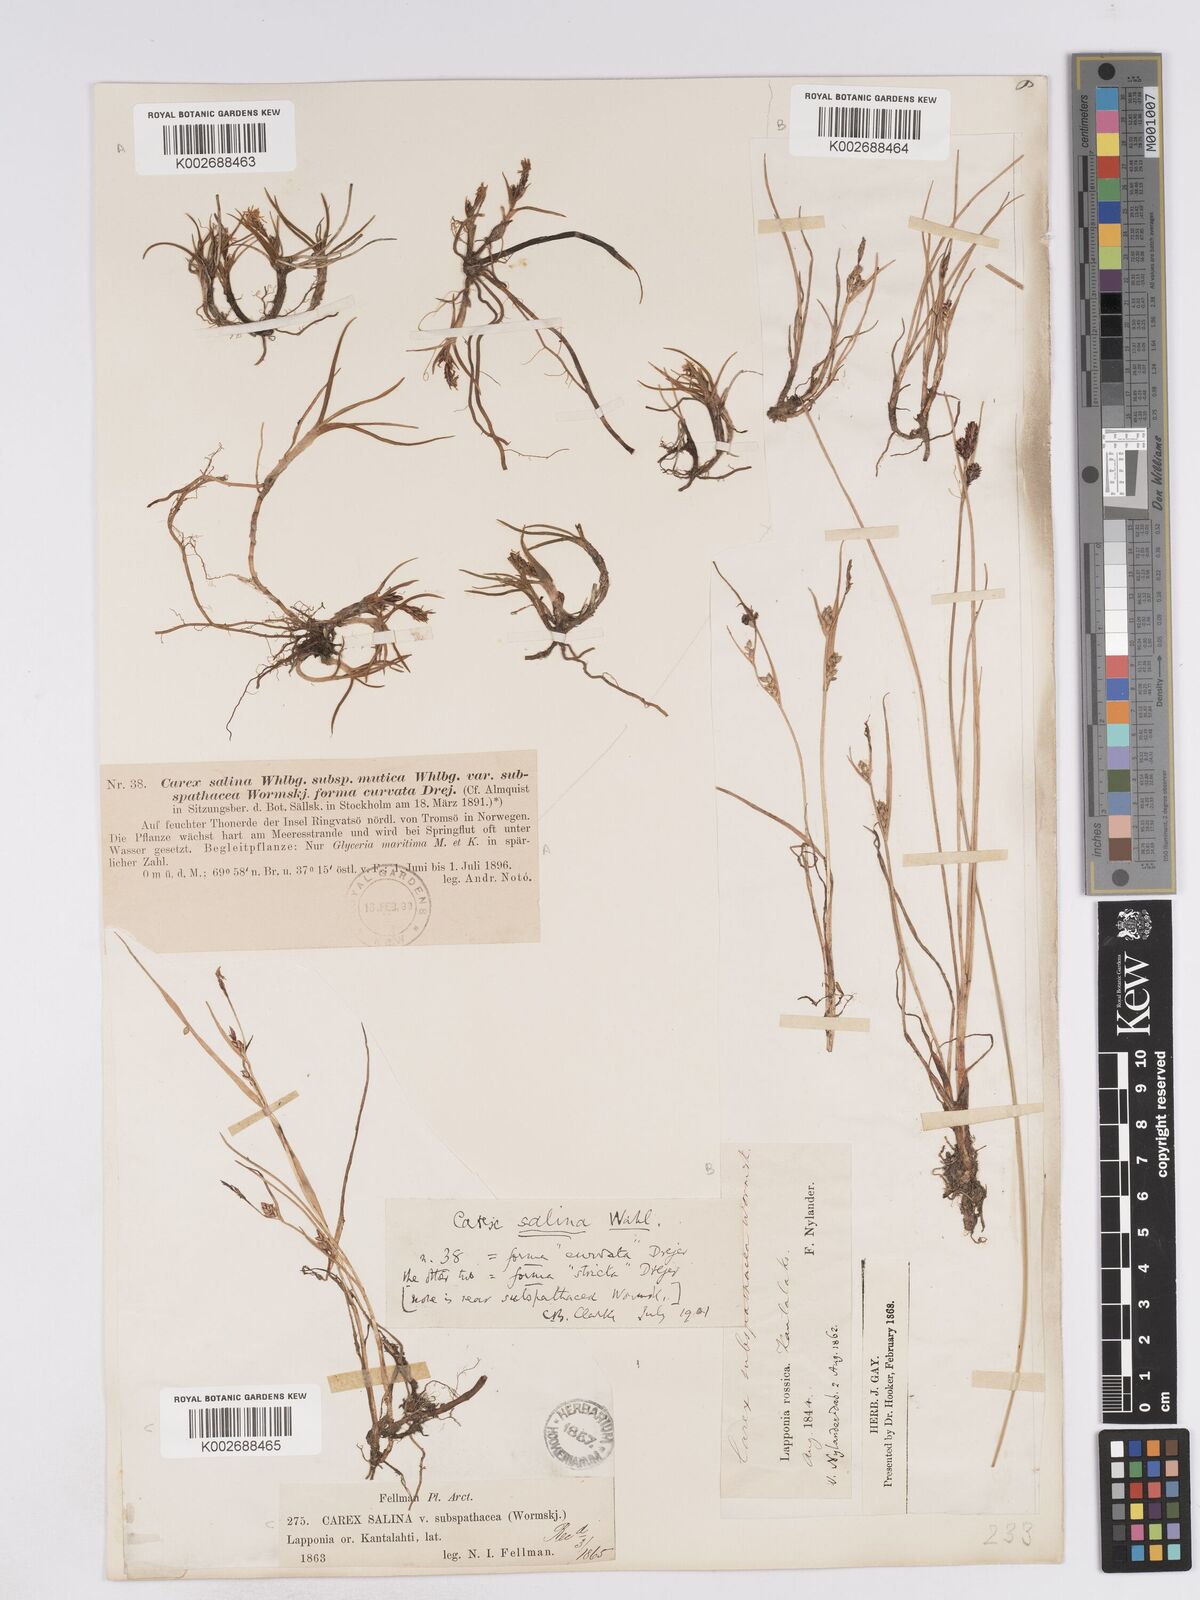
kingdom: Plantae
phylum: Tracheophyta
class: Liliopsida
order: Poales
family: Cyperaceae
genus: Carex
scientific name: Carex salina
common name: Saltmarsh sedge
